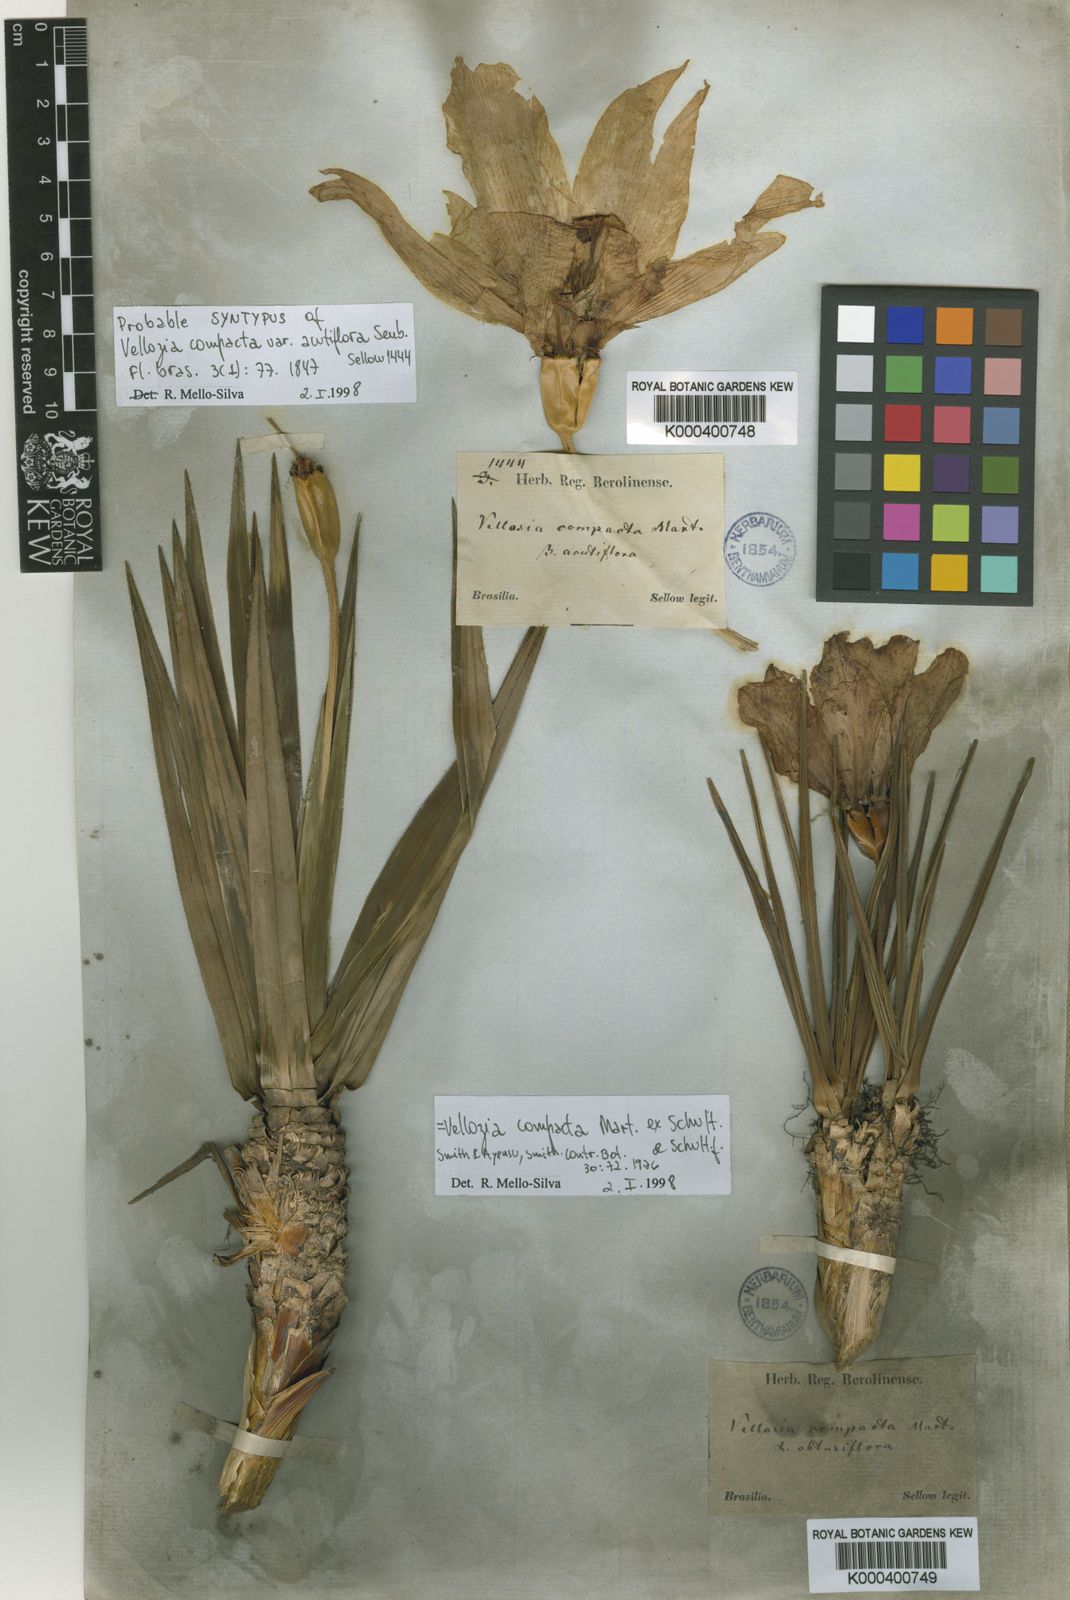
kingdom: Plantae
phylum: Tracheophyta
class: Liliopsida
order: Pandanales
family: Velloziaceae
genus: Vellozia
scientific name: Vellozia compacta
